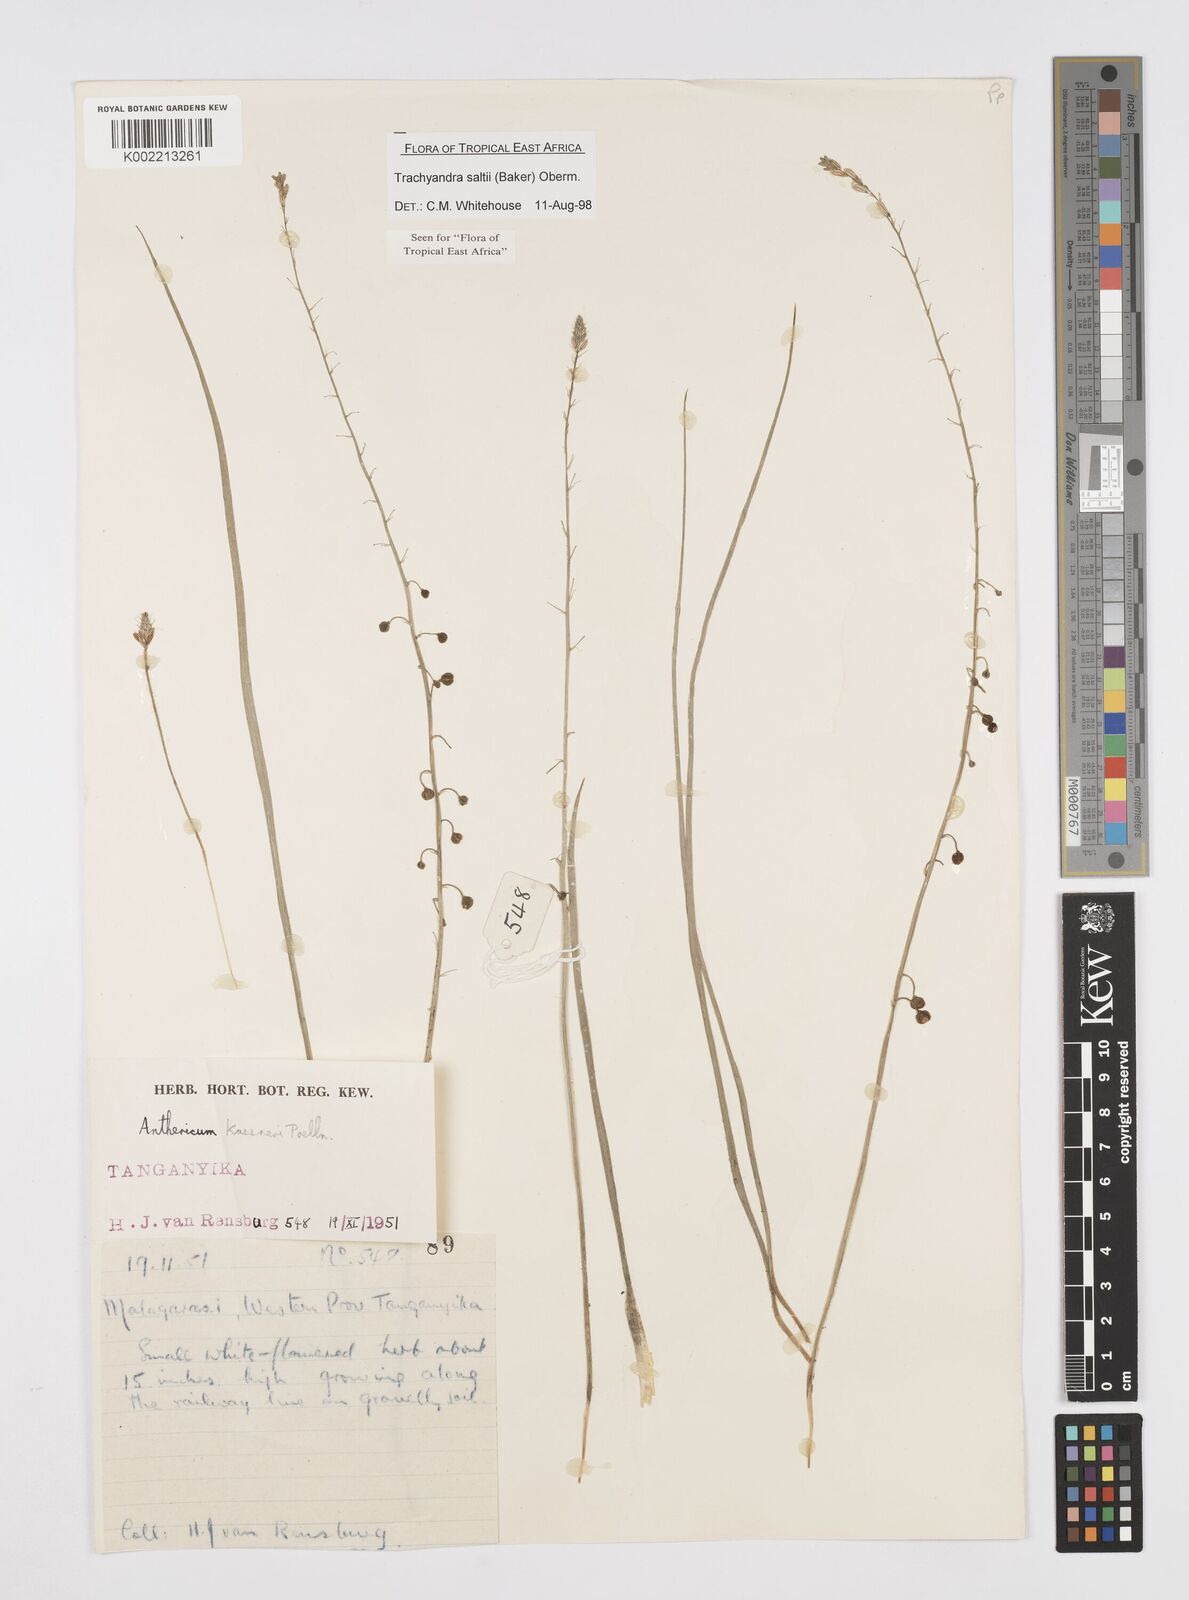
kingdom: Plantae
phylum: Tracheophyta
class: Liliopsida
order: Asparagales
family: Asphodelaceae
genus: Trachyandra
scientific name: Trachyandra saltii
